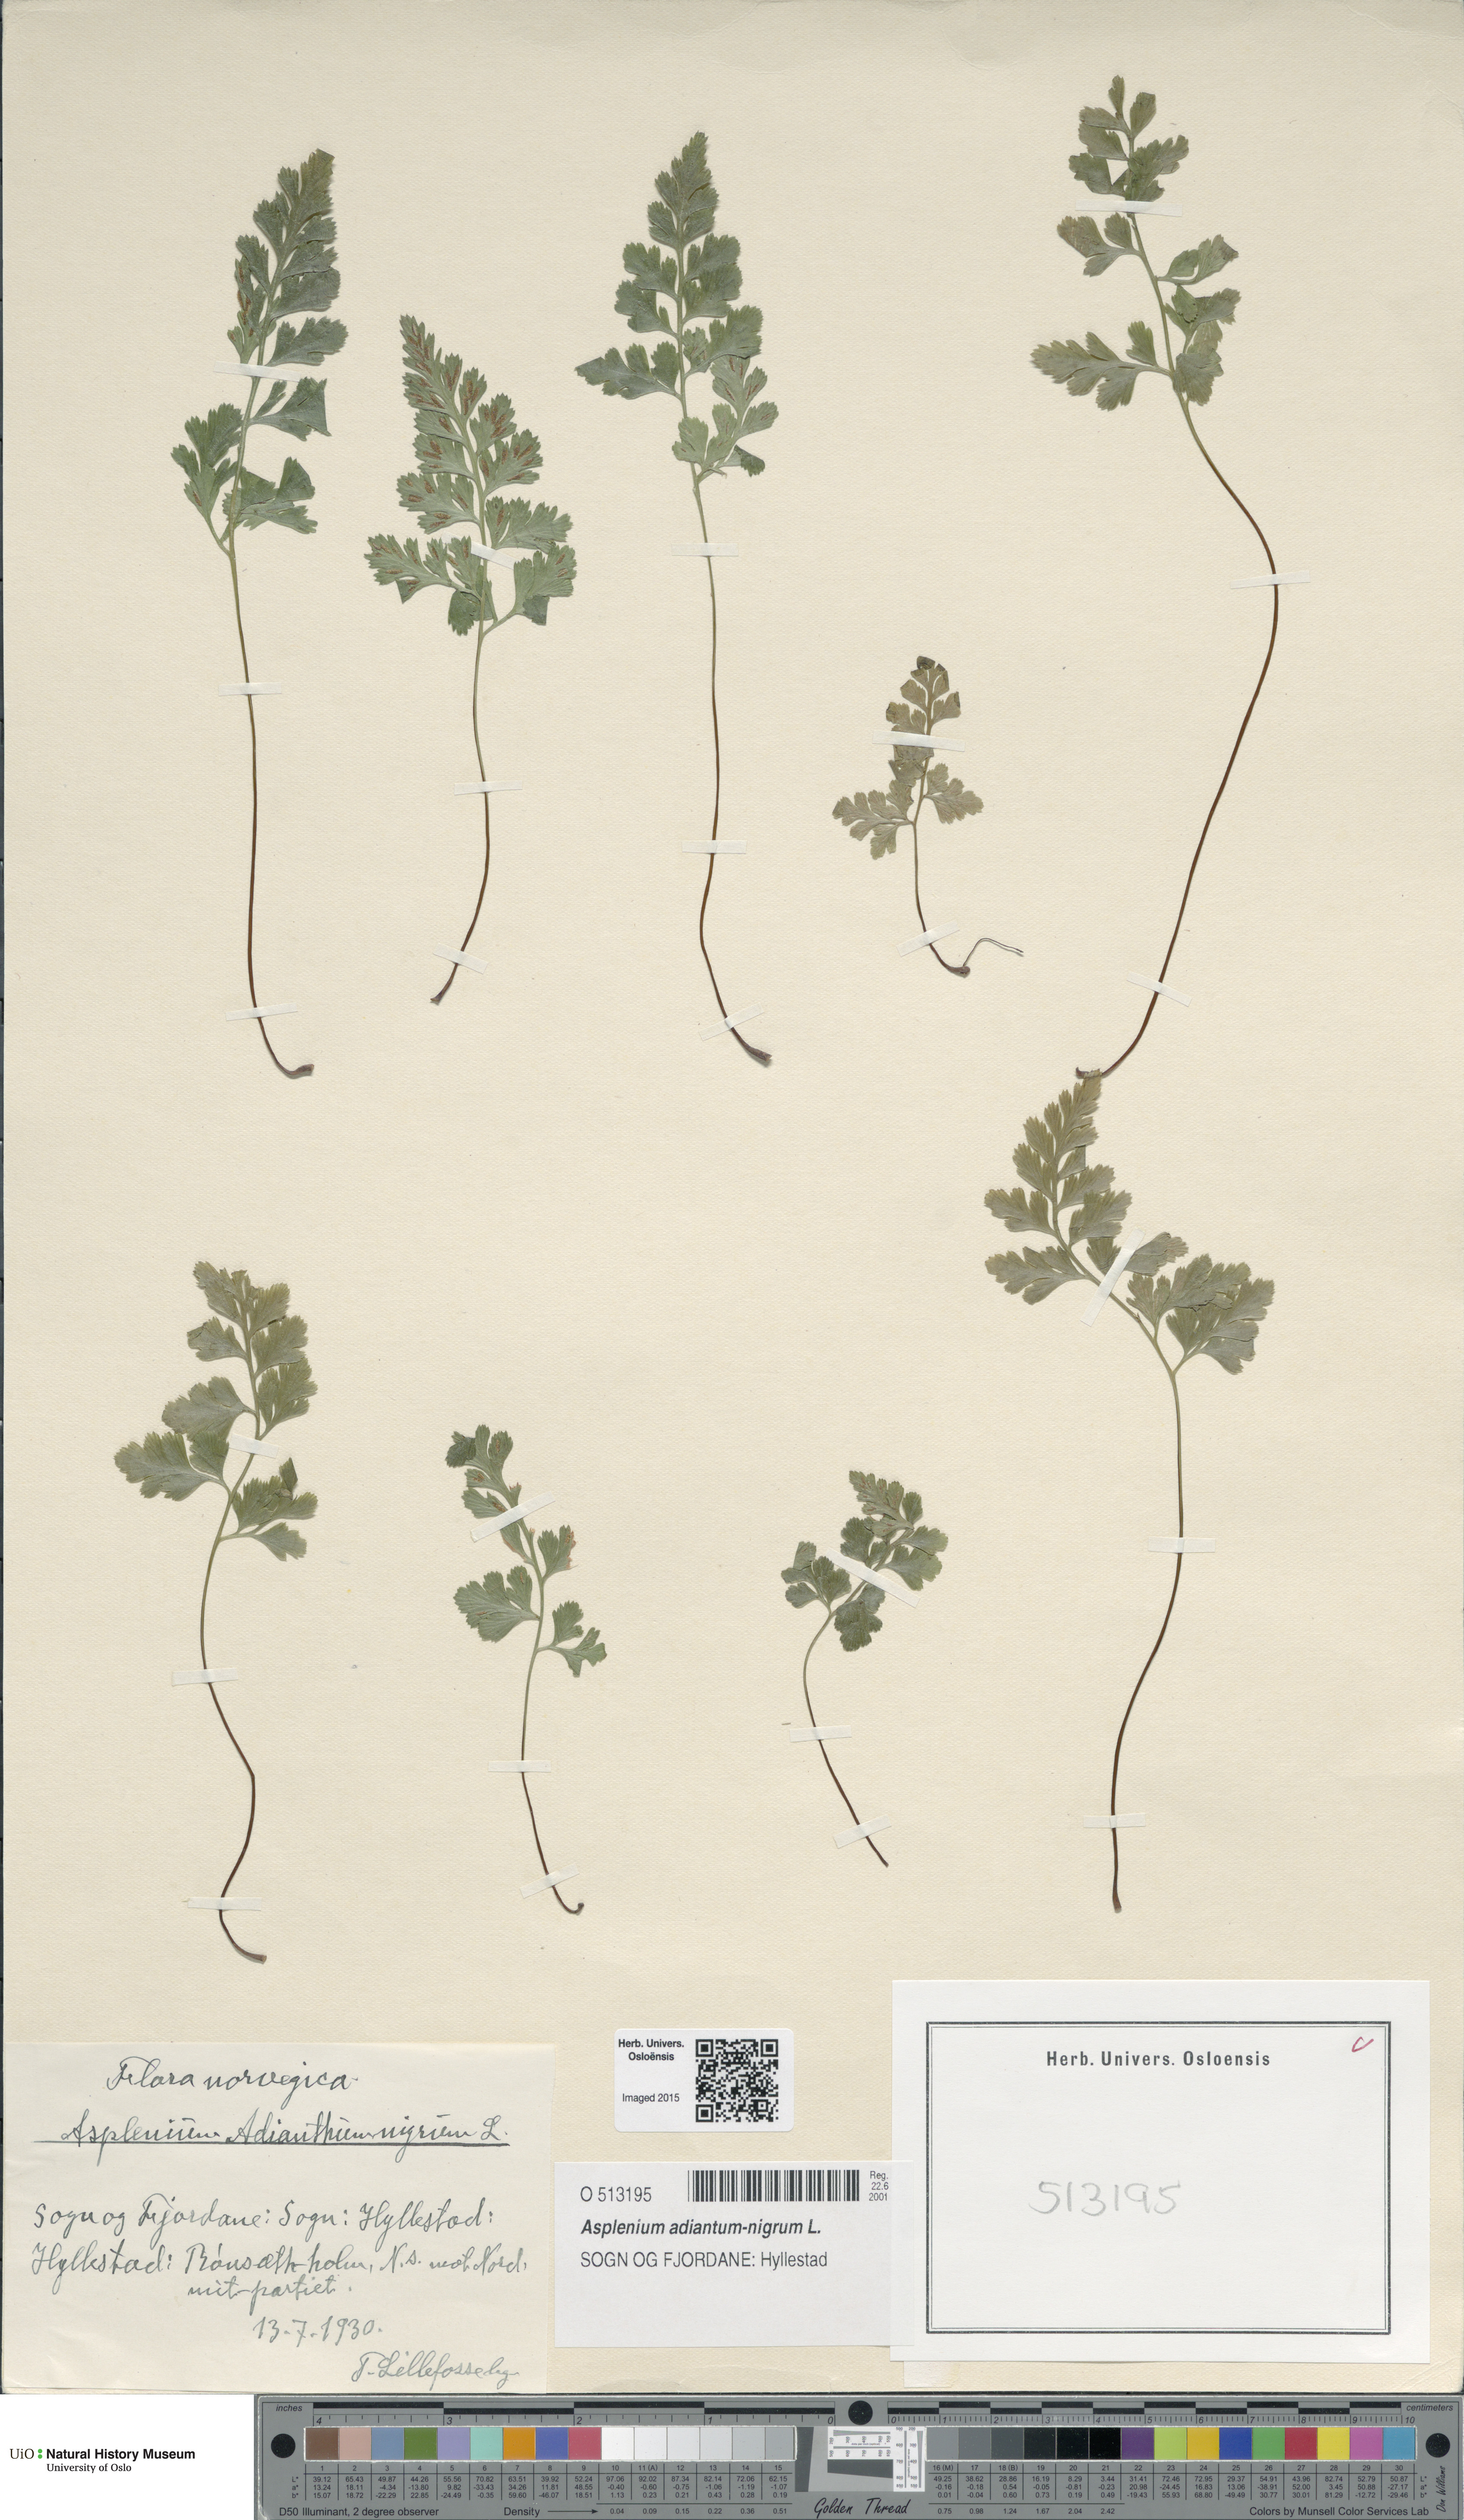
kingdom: Plantae
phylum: Tracheophyta
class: Polypodiopsida
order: Polypodiales
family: Aspleniaceae
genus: Asplenium
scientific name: Asplenium adiantum-nigrum
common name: Black spleenwort
